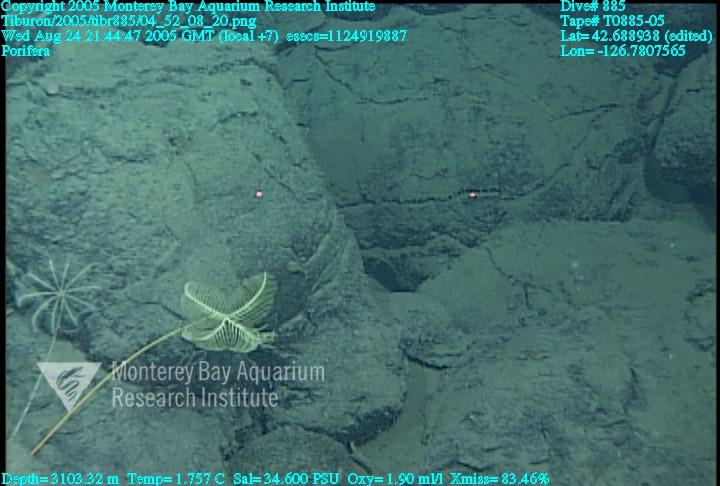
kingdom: Animalia
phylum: Porifera
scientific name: Porifera
